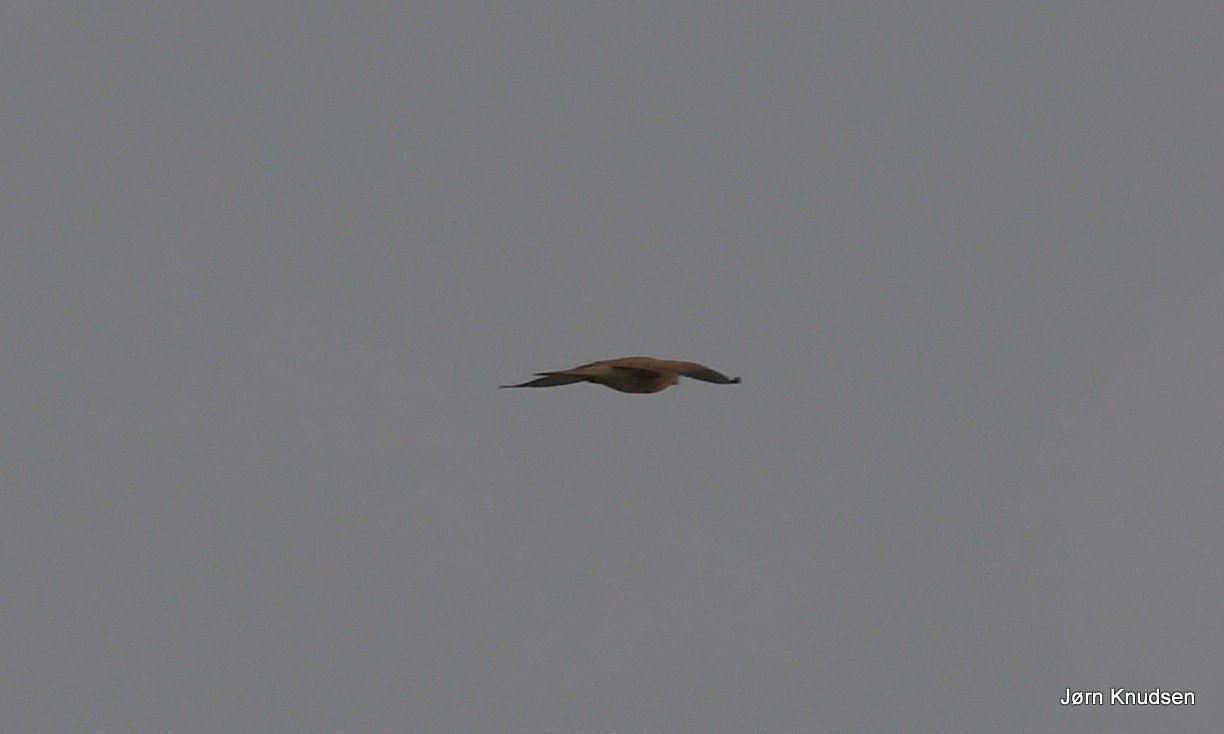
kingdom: Animalia
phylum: Chordata
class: Aves
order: Falconiformes
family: Falconidae
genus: Falco
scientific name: Falco tinnunculus
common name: Tårnfalk
